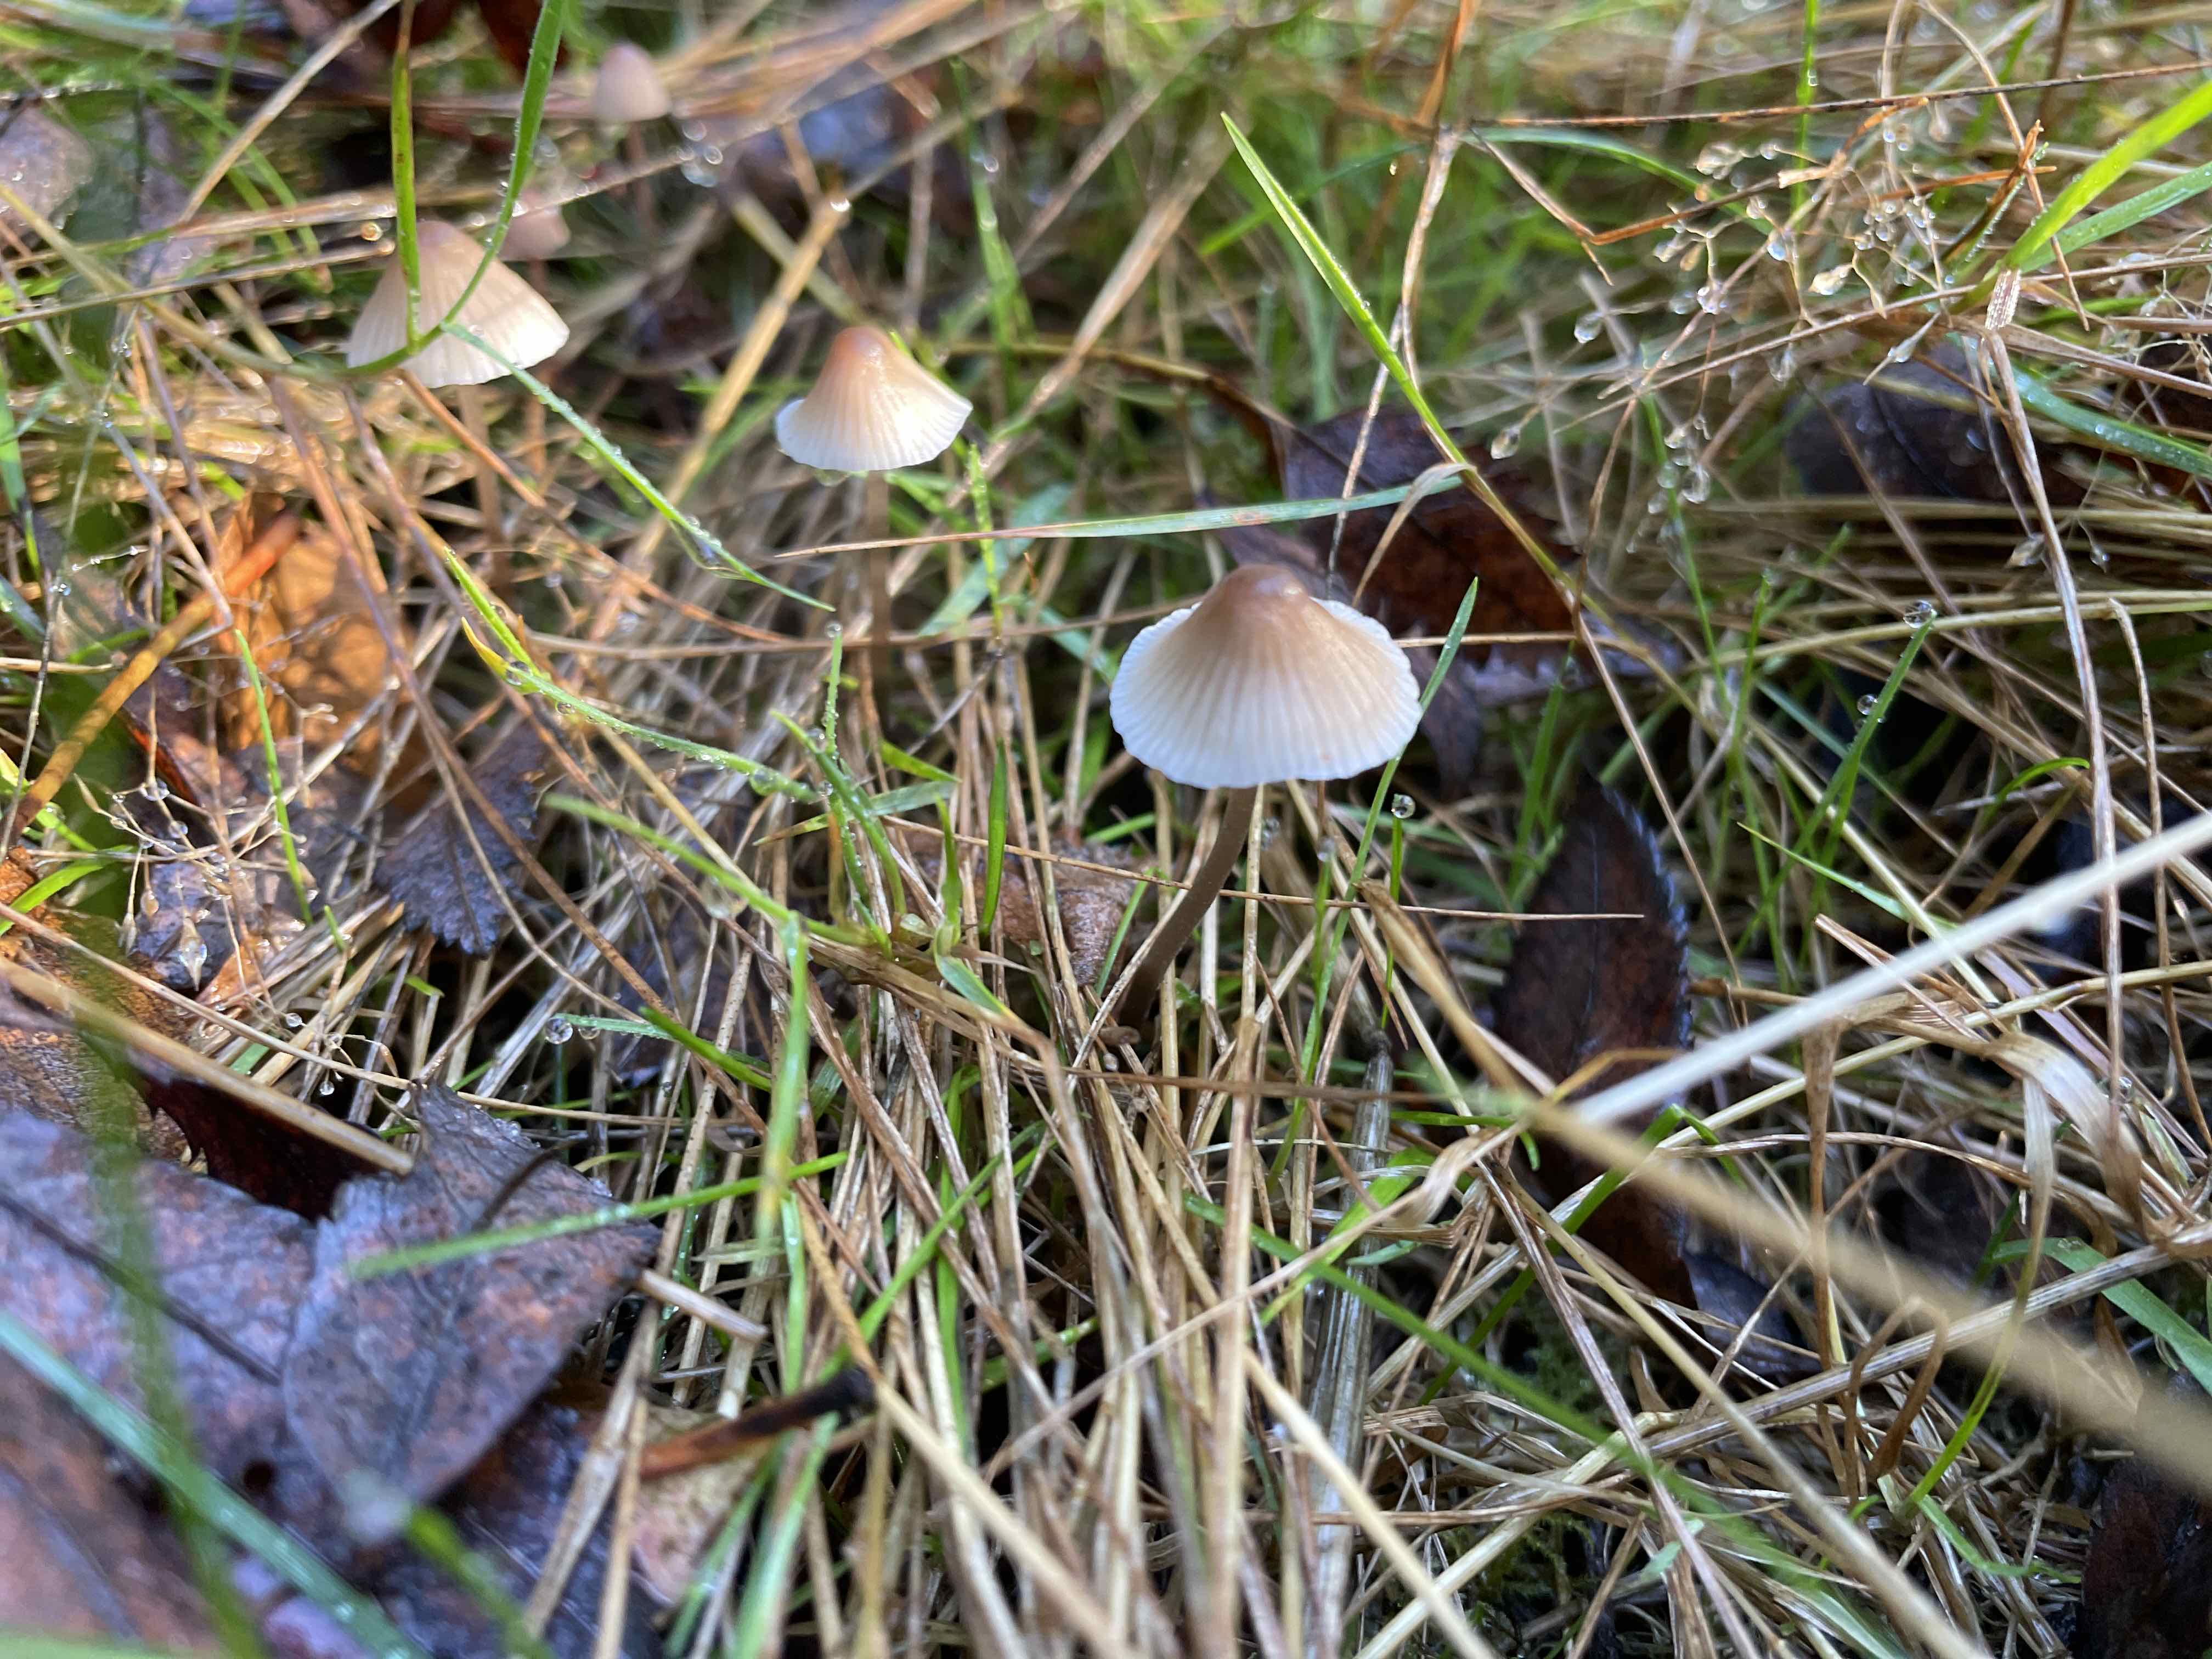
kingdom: Fungi
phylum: Basidiomycota
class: Agaricomycetes
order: Agaricales
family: Mycenaceae
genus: Mycena
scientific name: Mycena metata
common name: rødlig huesvamp
